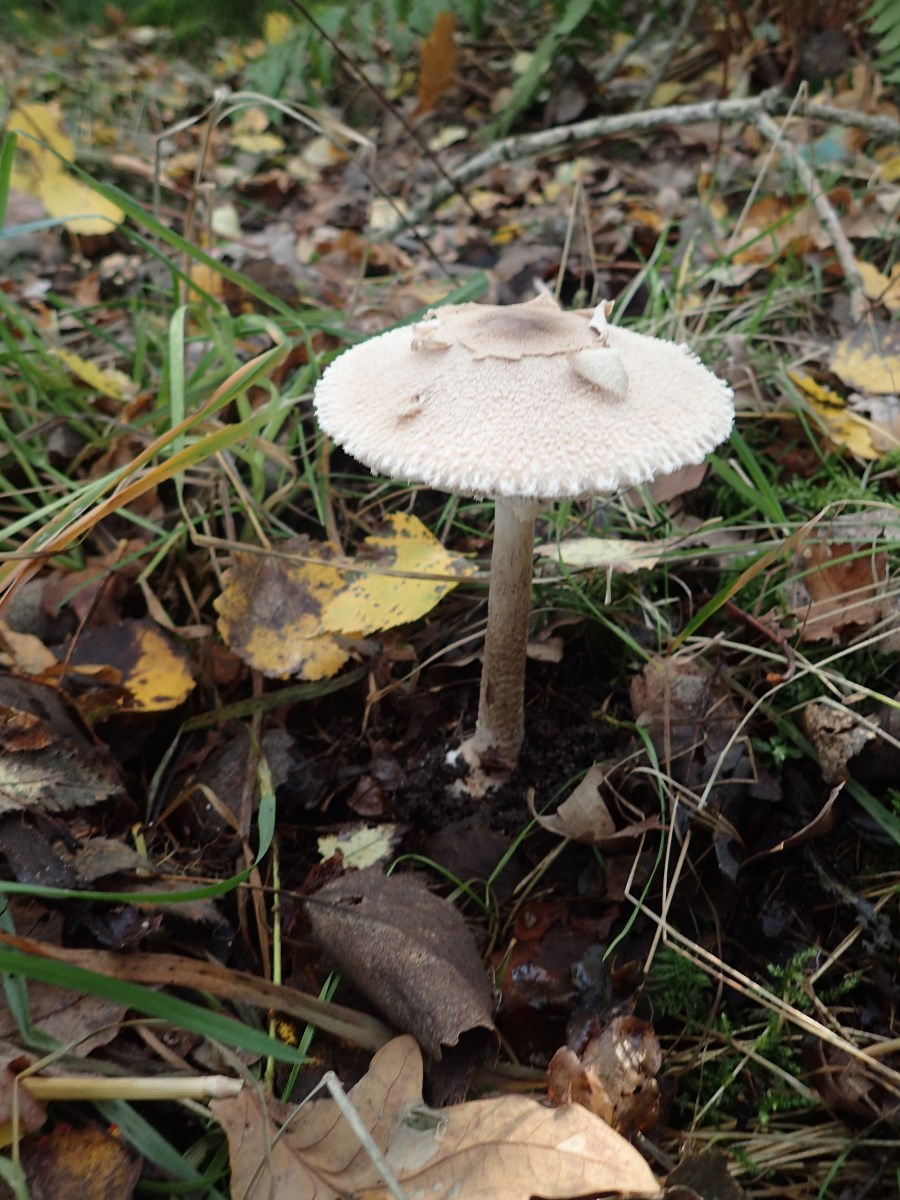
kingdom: Fungi
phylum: Basidiomycota
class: Agaricomycetes
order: Agaricales
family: Agaricaceae
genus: Macrolepiota
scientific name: Macrolepiota mastoidea
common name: puklet kæmpeparasolhat
